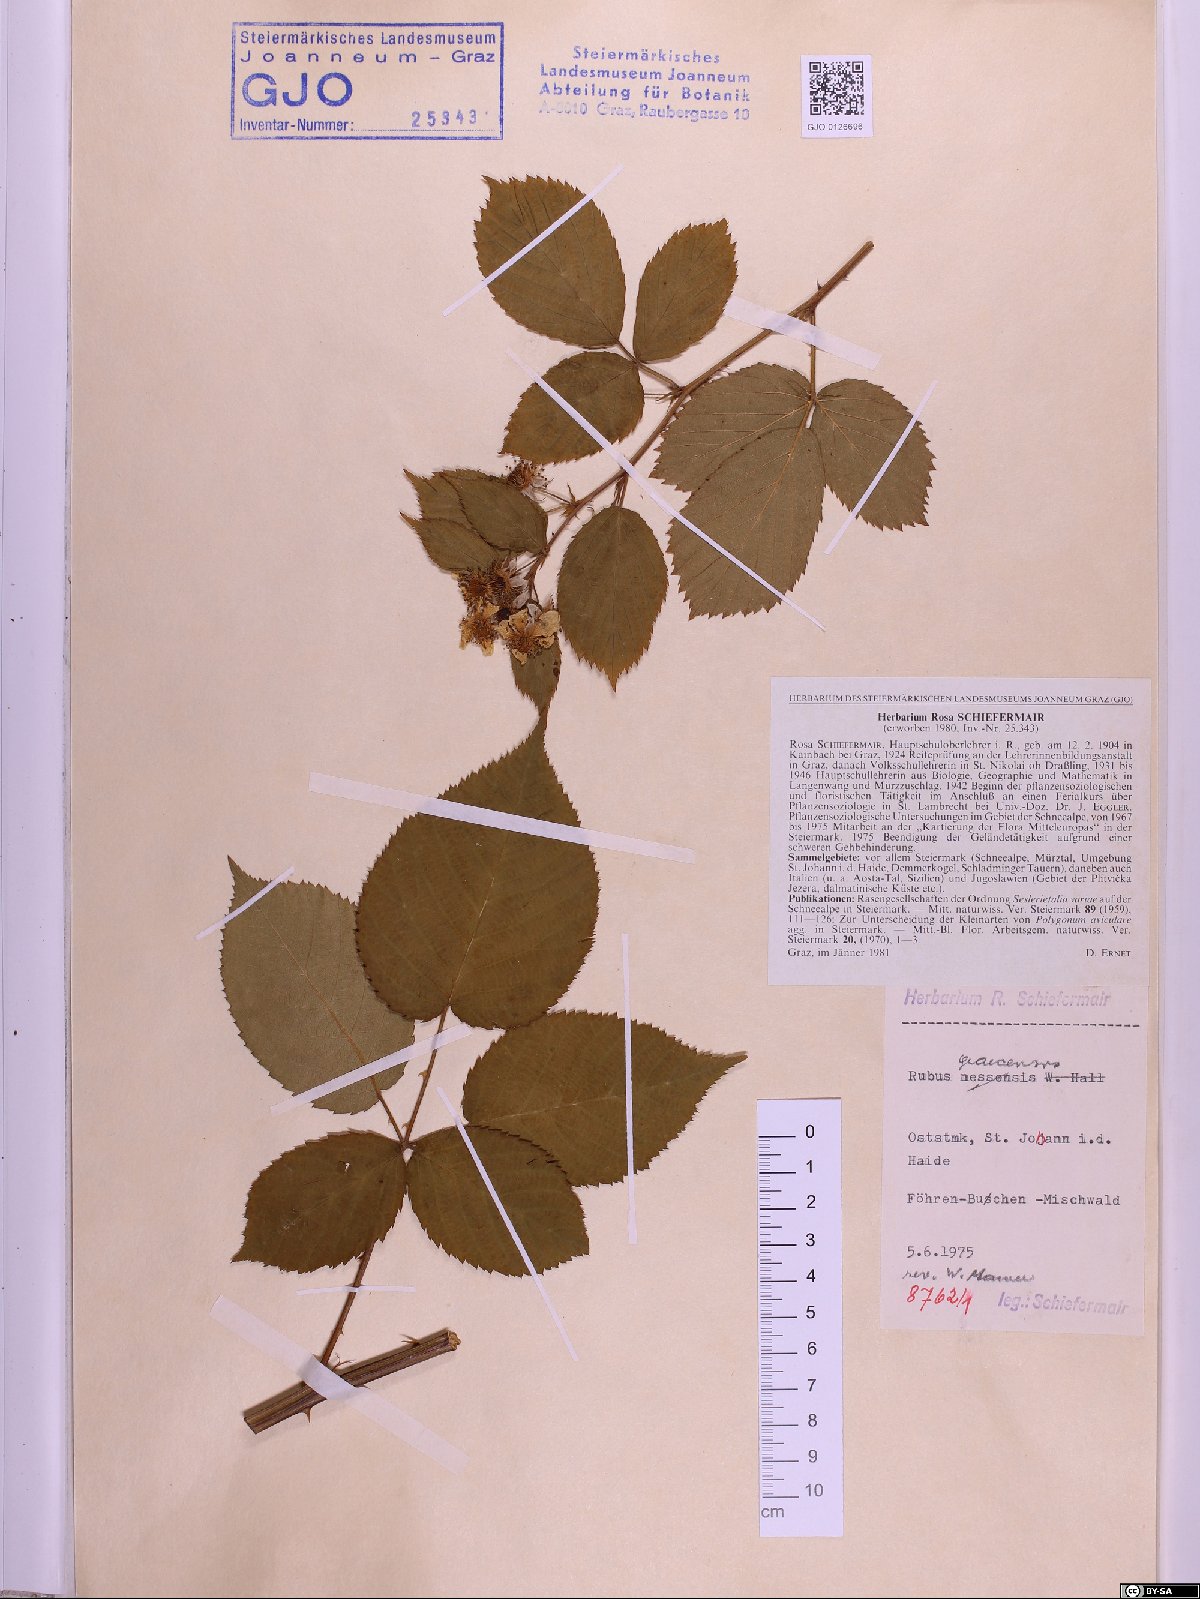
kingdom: Plantae
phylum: Tracheophyta
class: Magnoliopsida
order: Rosales
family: Rosaceae
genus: Rubus
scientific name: Rubus graecensis
